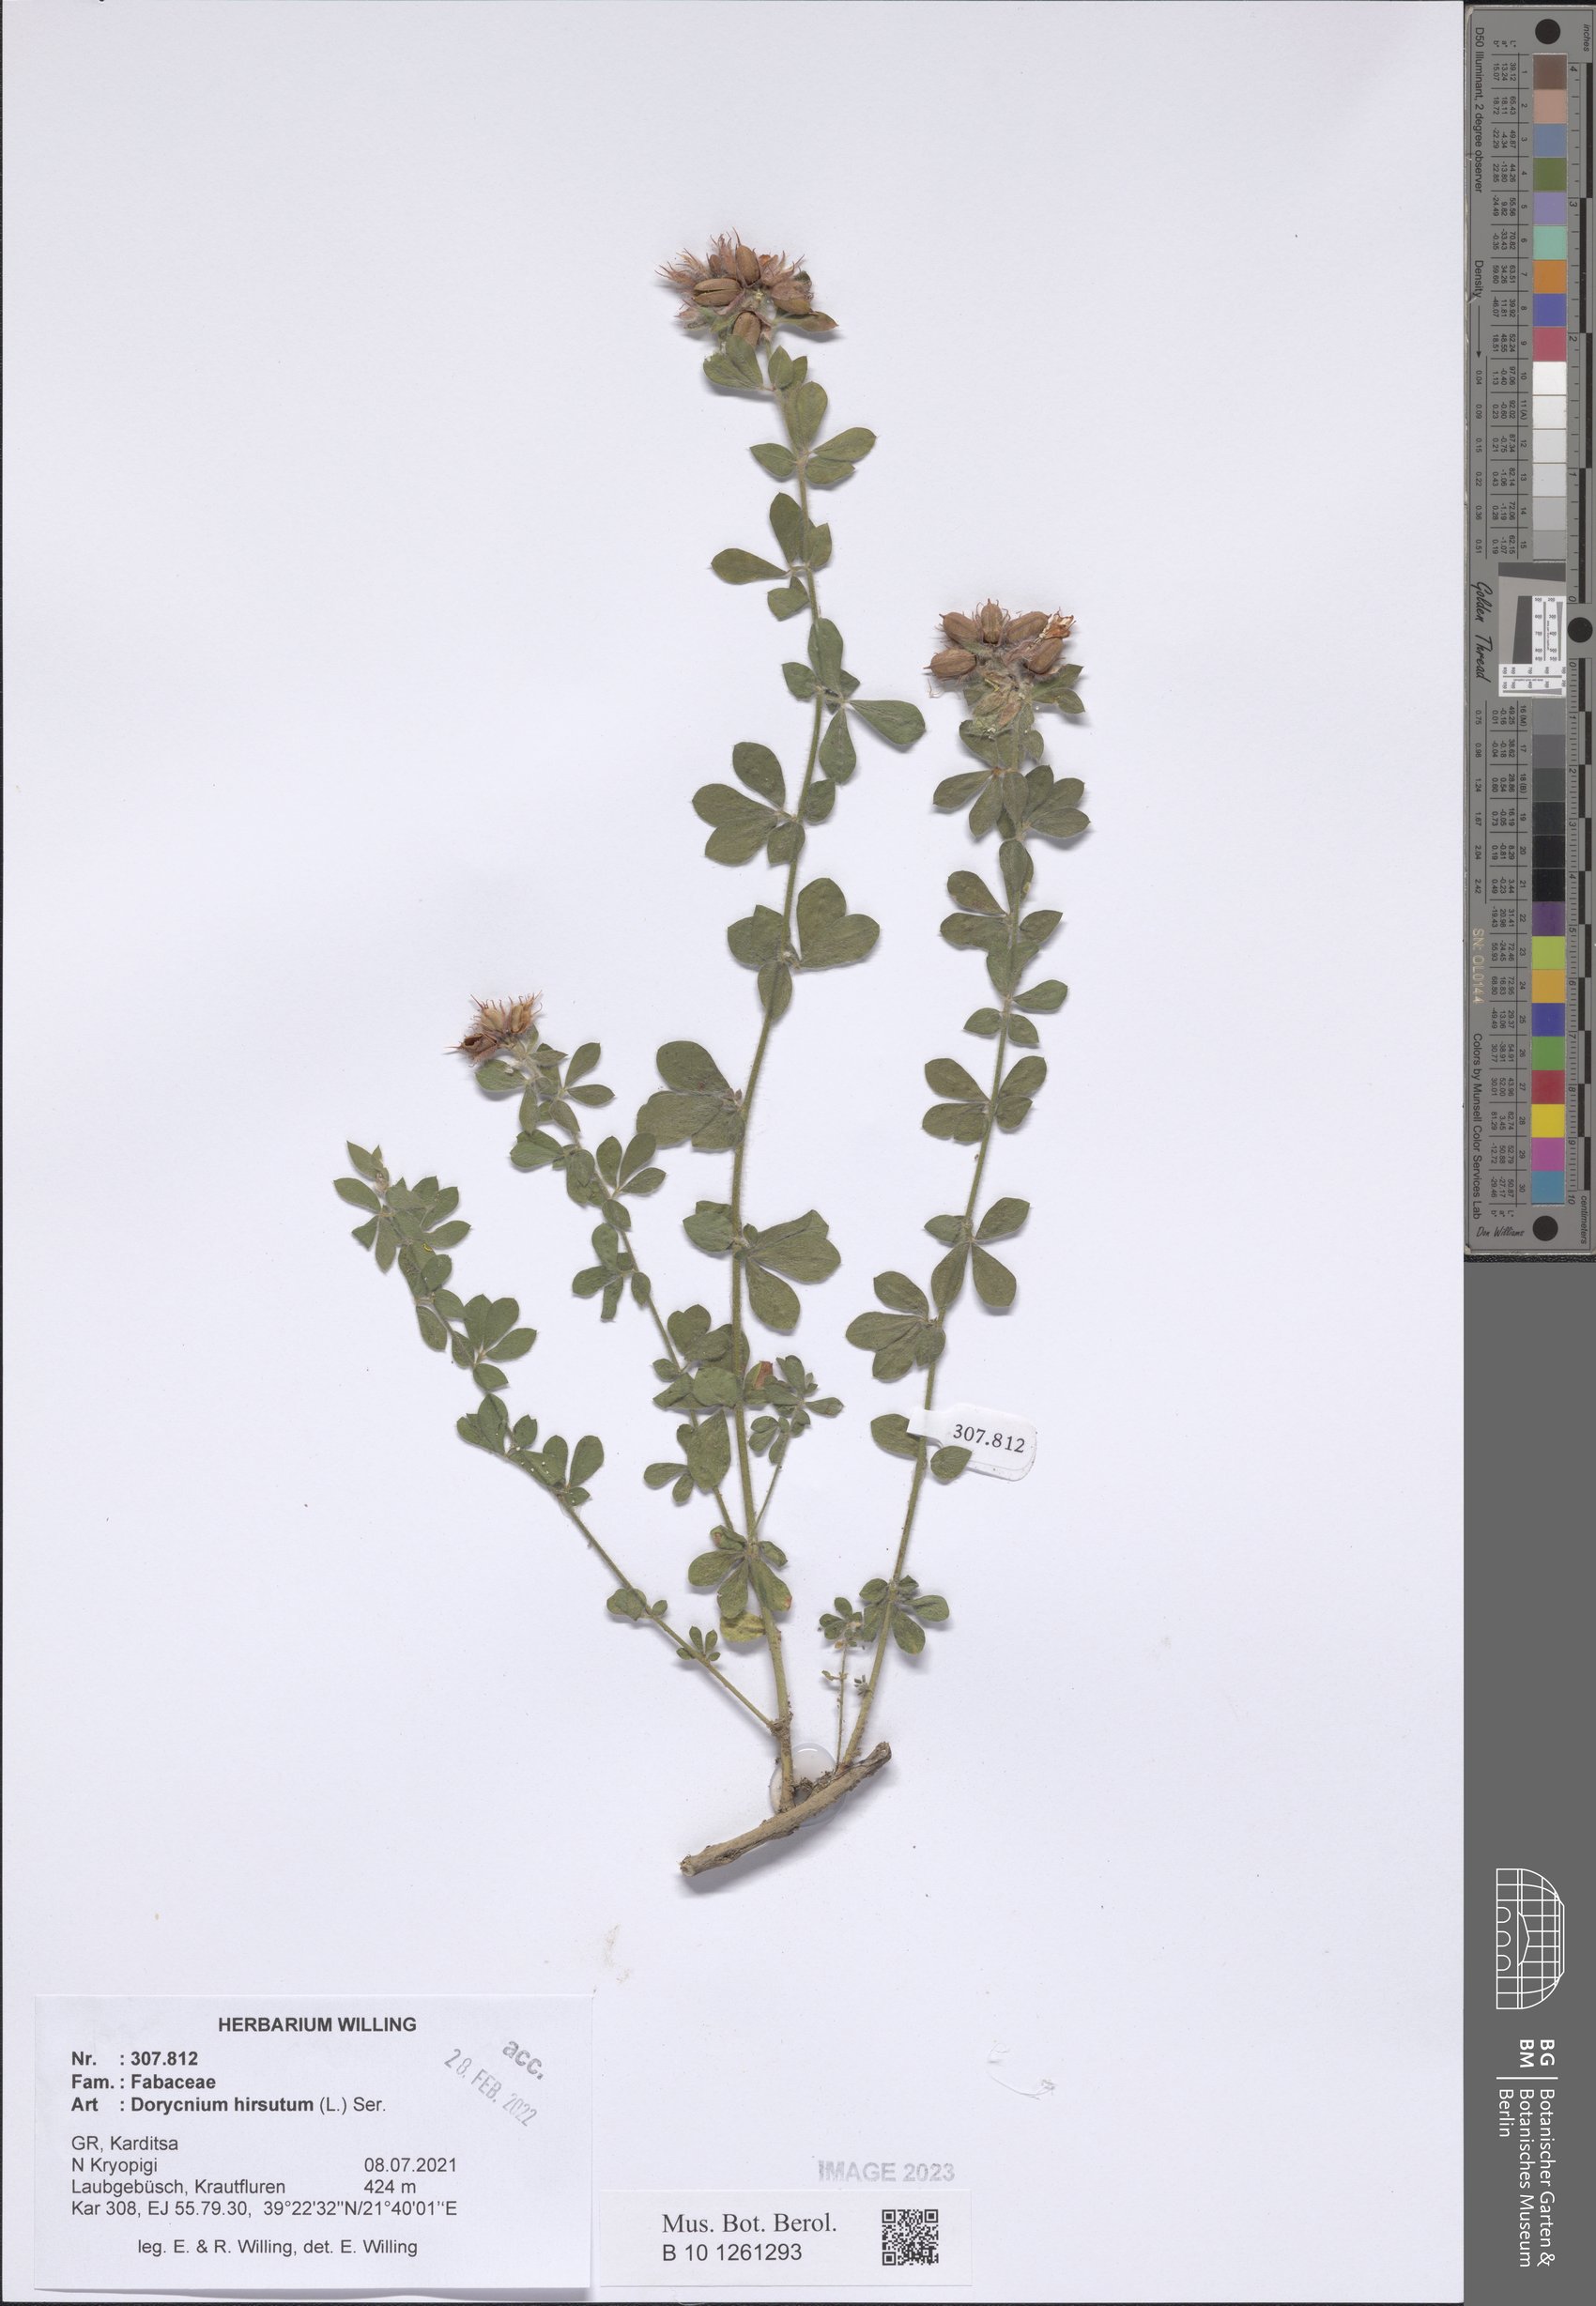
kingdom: Plantae
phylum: Tracheophyta
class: Magnoliopsida
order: Fabales
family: Fabaceae
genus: Lotus
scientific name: Lotus hirsutus
